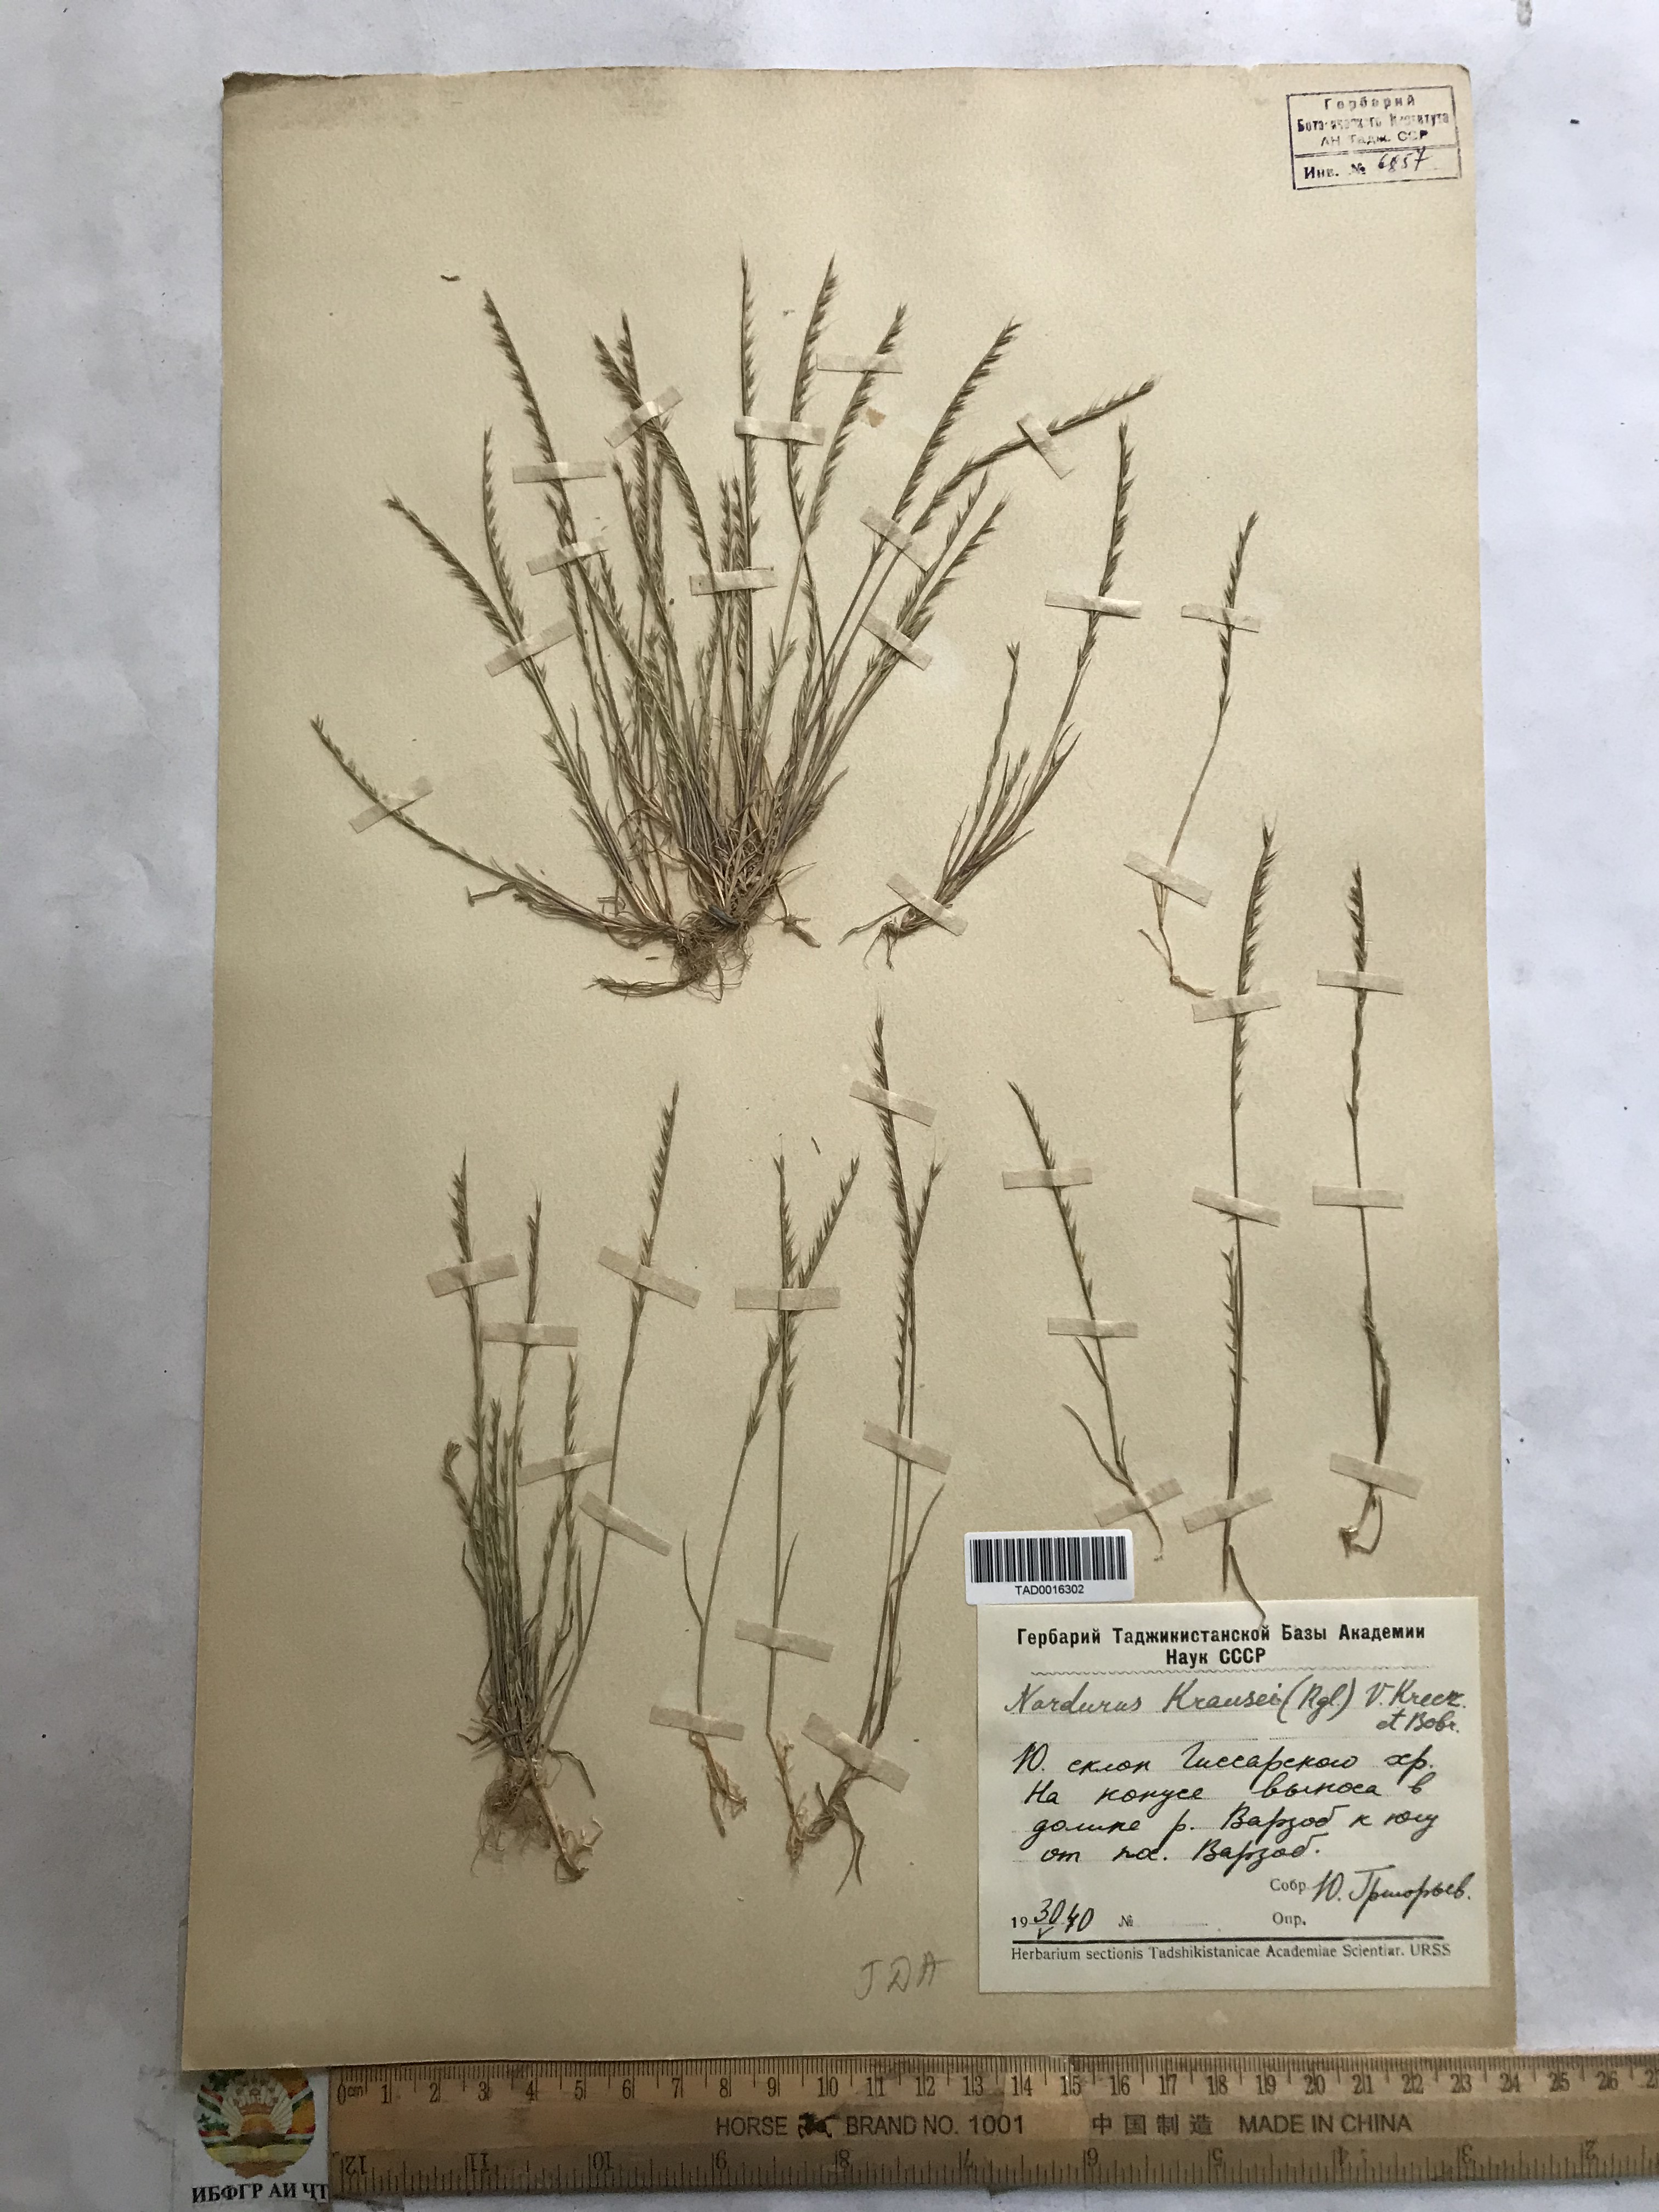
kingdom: Plantae
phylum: Tracheophyta
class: Liliopsida
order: Poales
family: Poaceae
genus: Festuca
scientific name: Festuca orientalis
